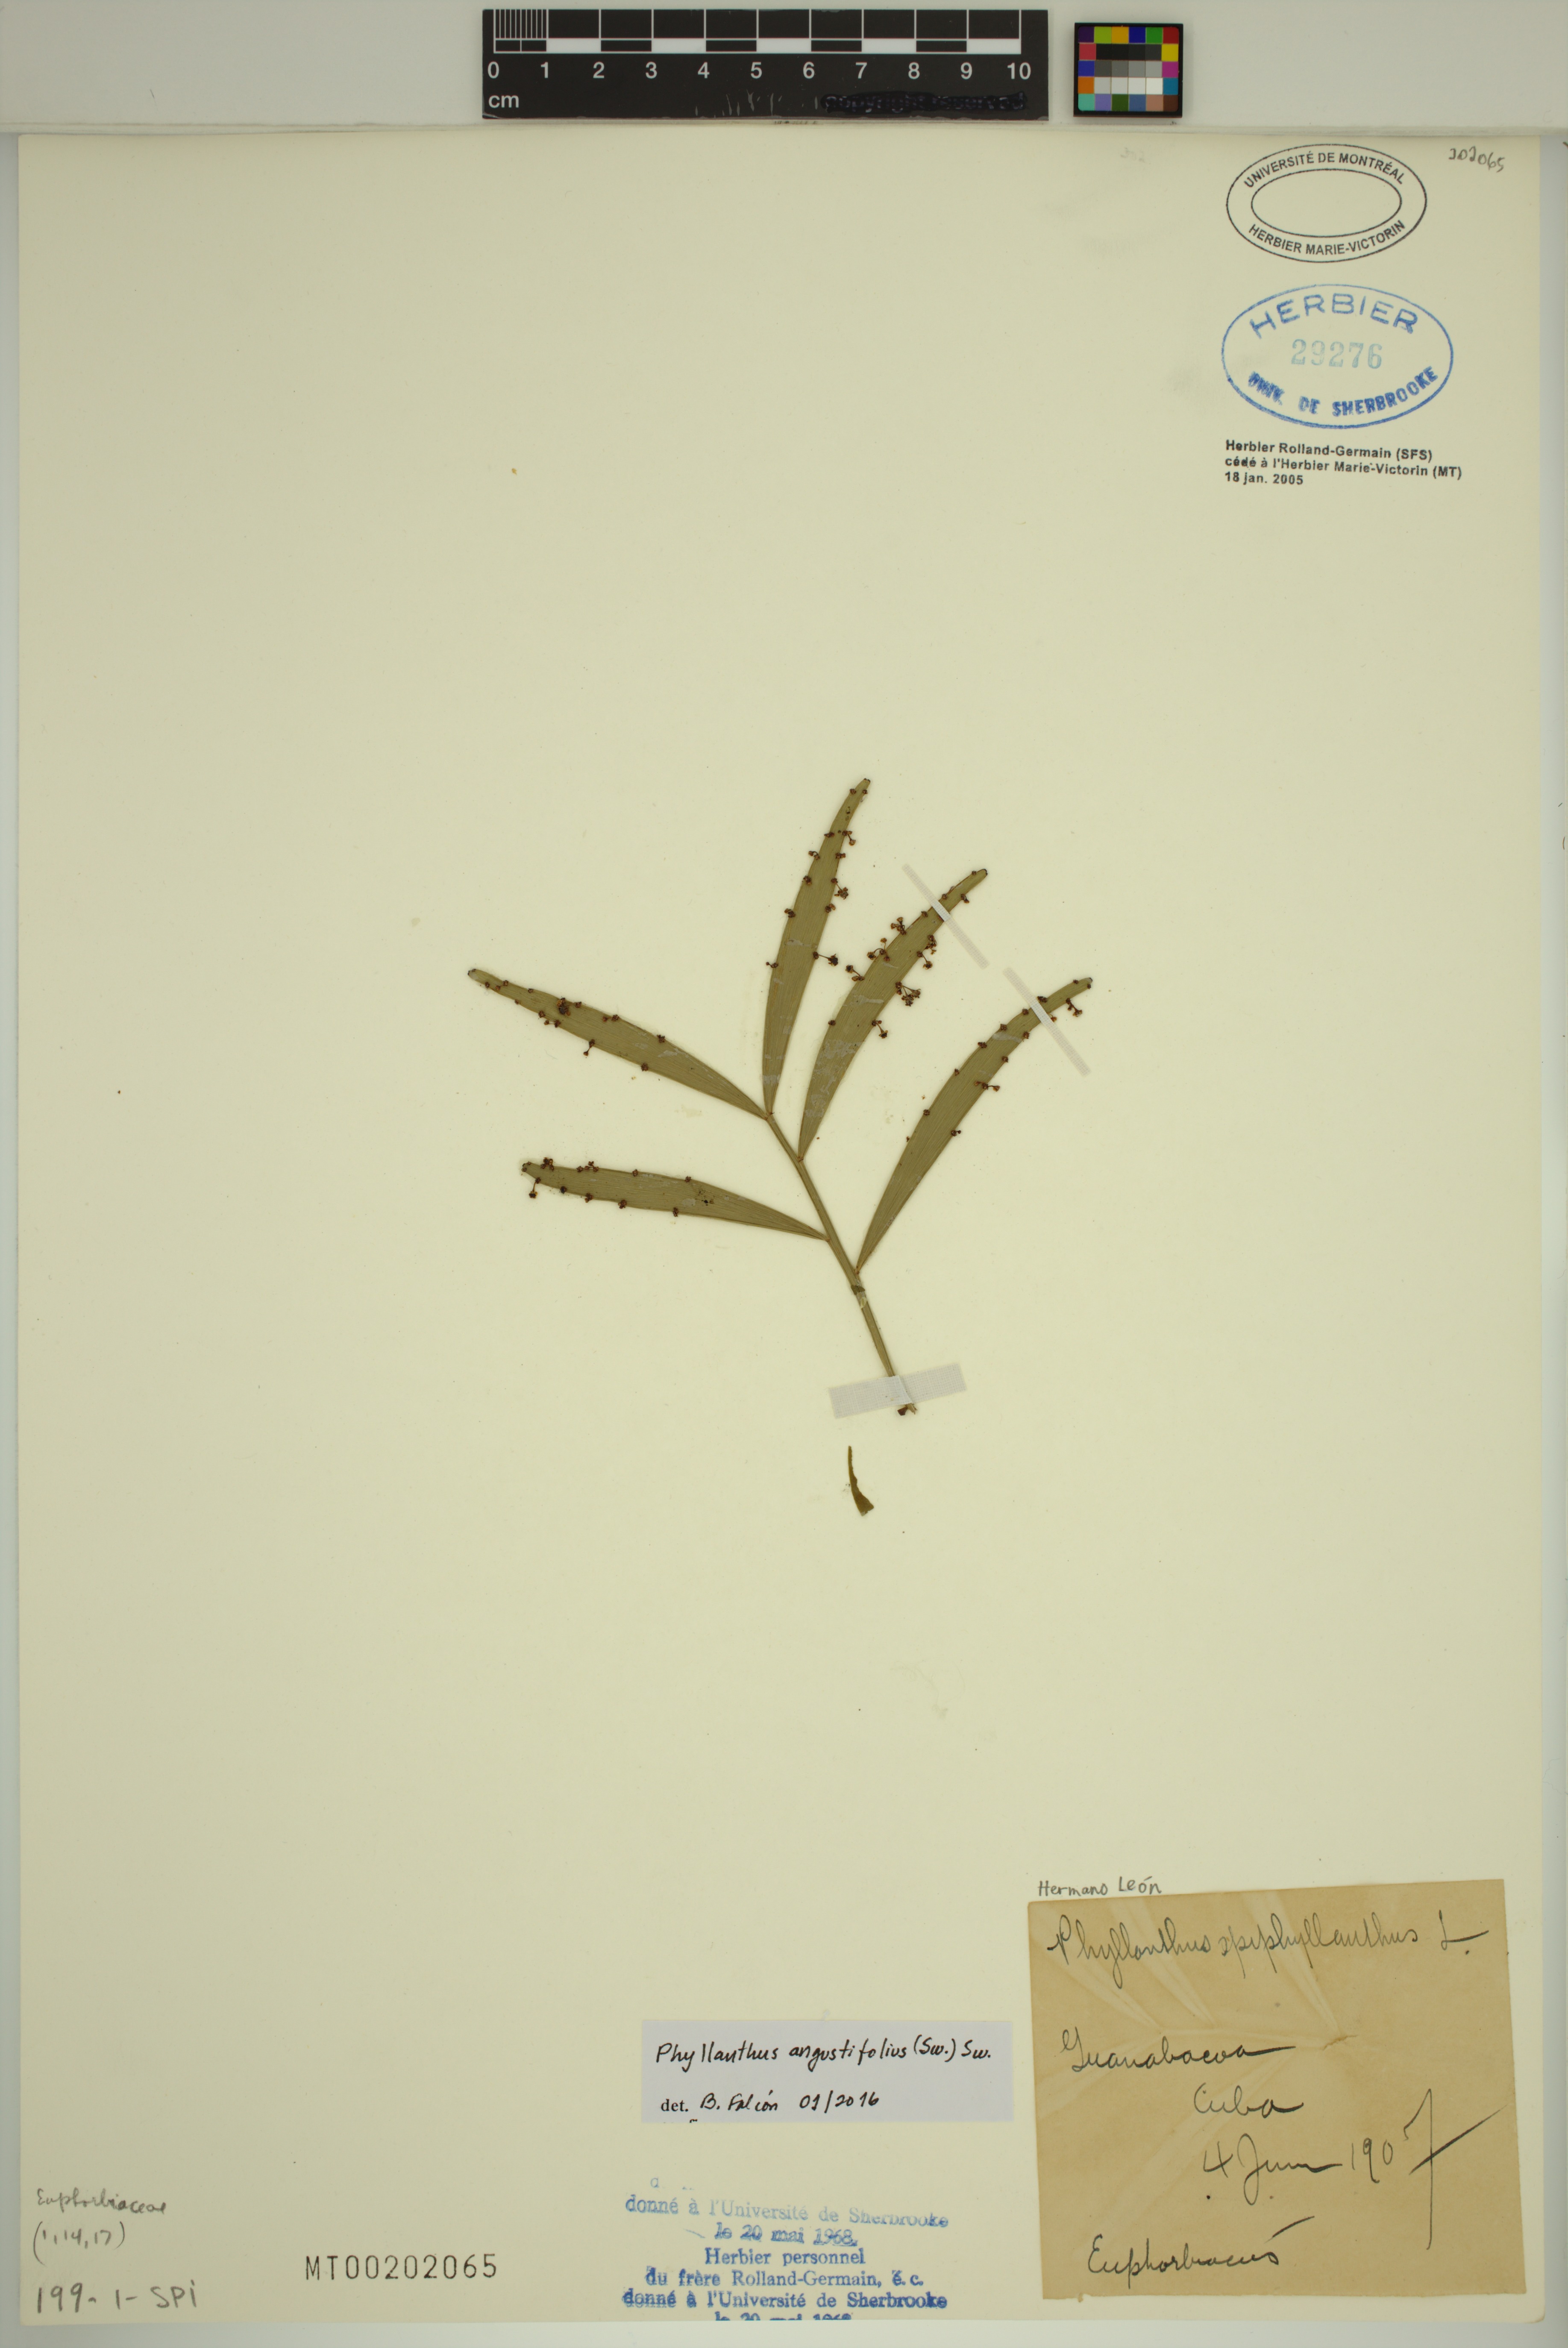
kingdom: Plantae
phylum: Tracheophyta
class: Magnoliopsida
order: Malpighiales
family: Phyllanthaceae
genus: Phyllanthus
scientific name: Phyllanthus angustifolius
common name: Foliage flower
